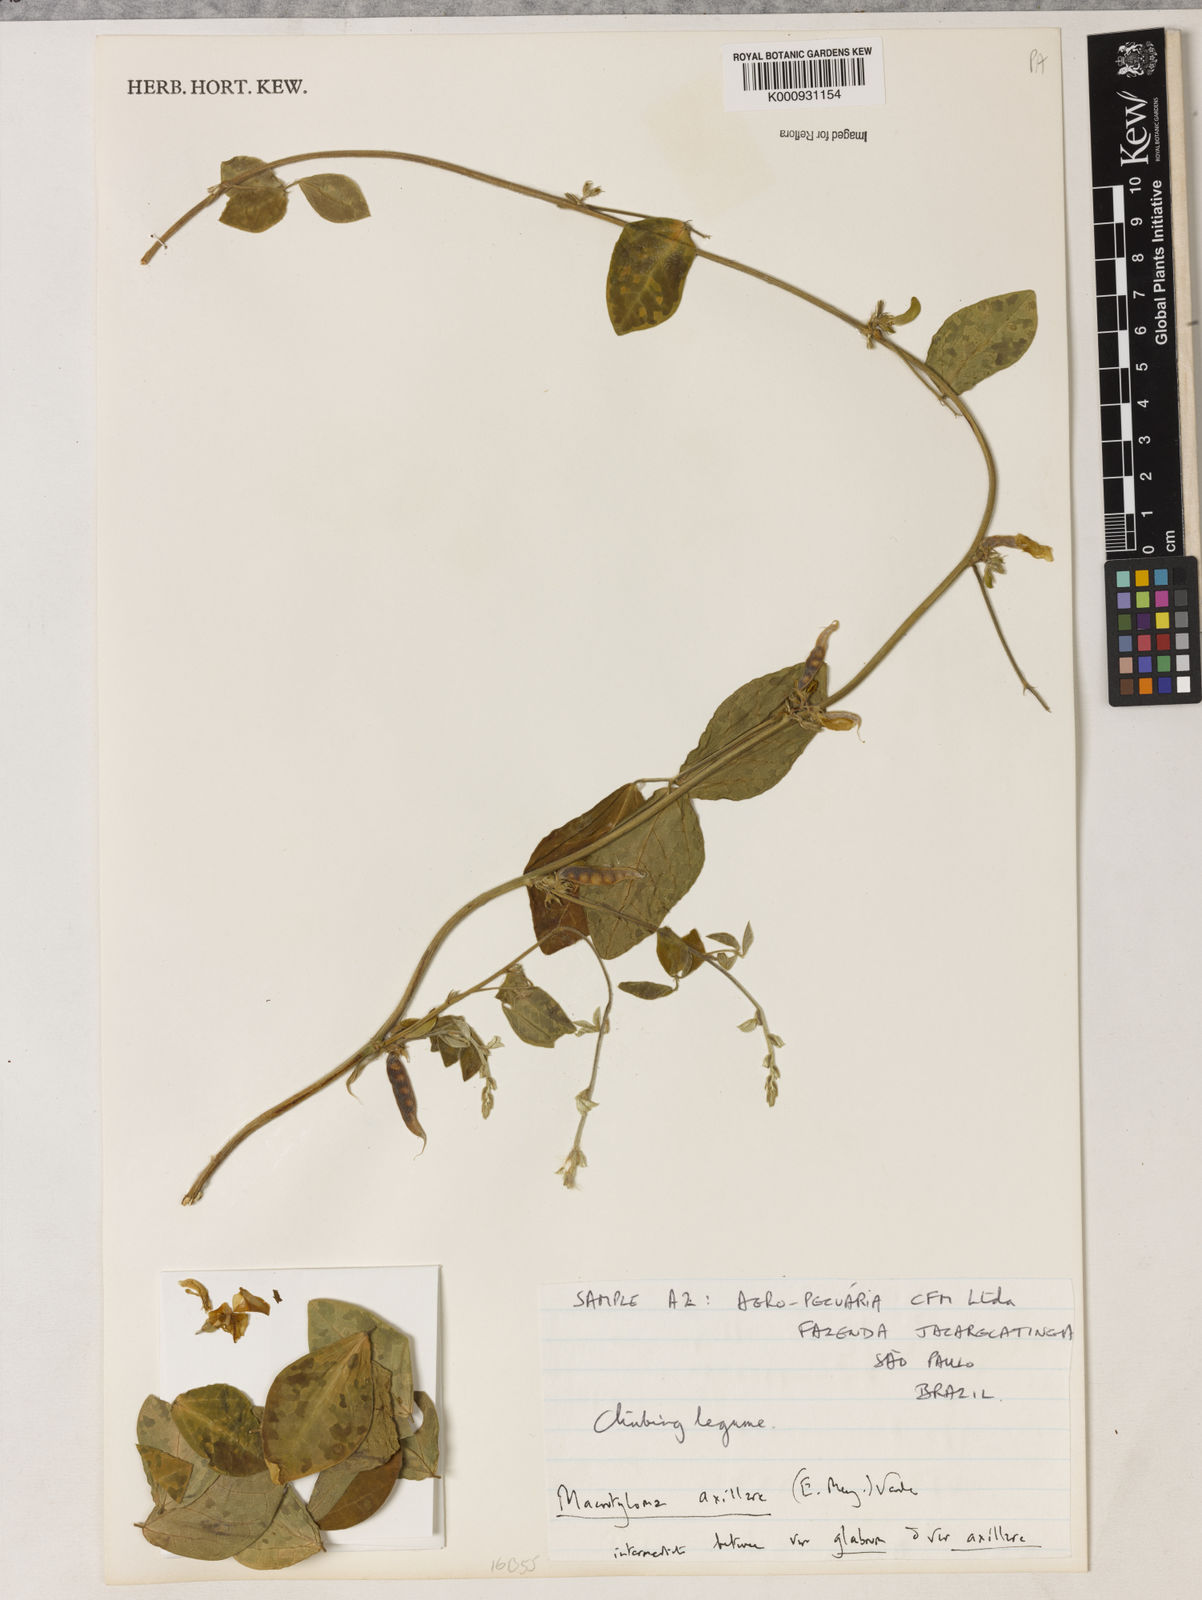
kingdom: Plantae
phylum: Tracheophyta
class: Magnoliopsida
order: Fabales
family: Fabaceae
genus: Macrotyloma
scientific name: Macrotyloma
